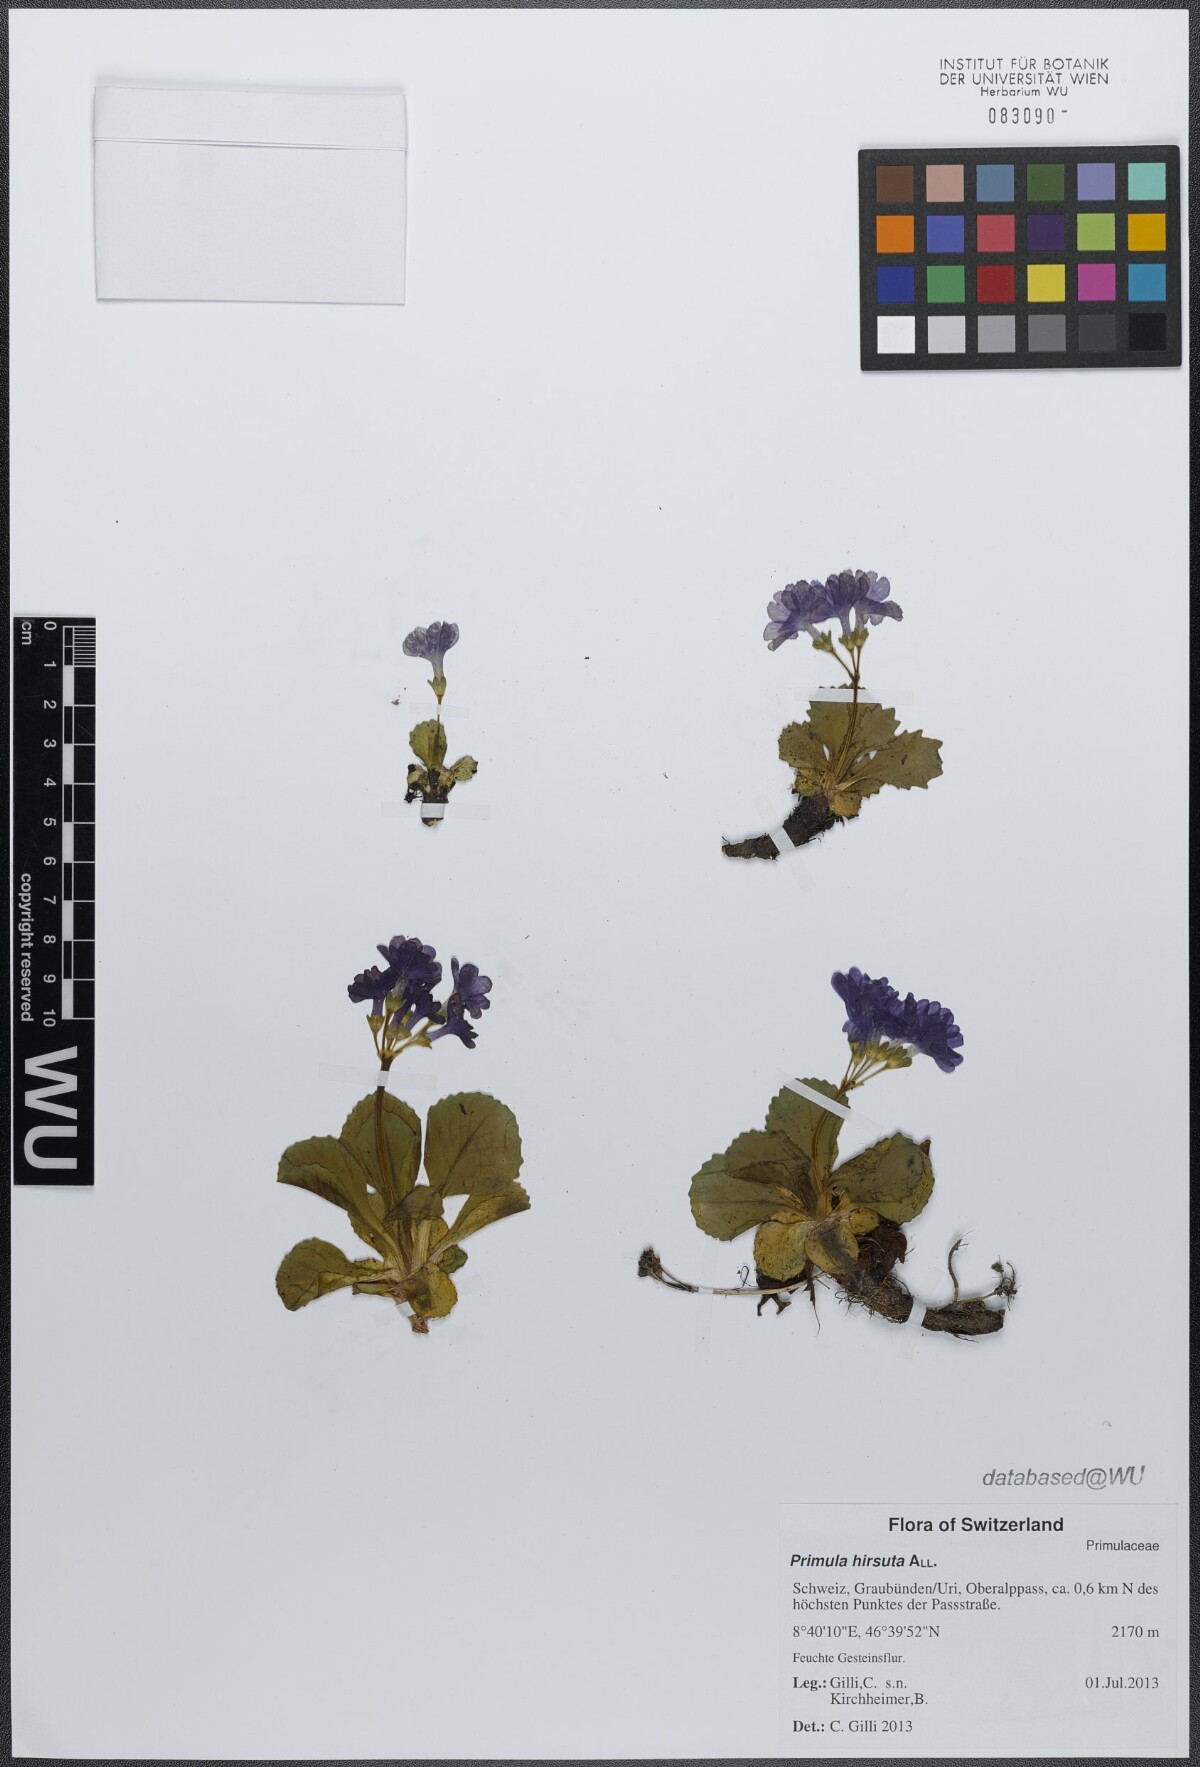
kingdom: Plantae
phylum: Tracheophyta
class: Magnoliopsida
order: Ericales
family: Primulaceae
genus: Primula
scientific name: Primula hirsuta
